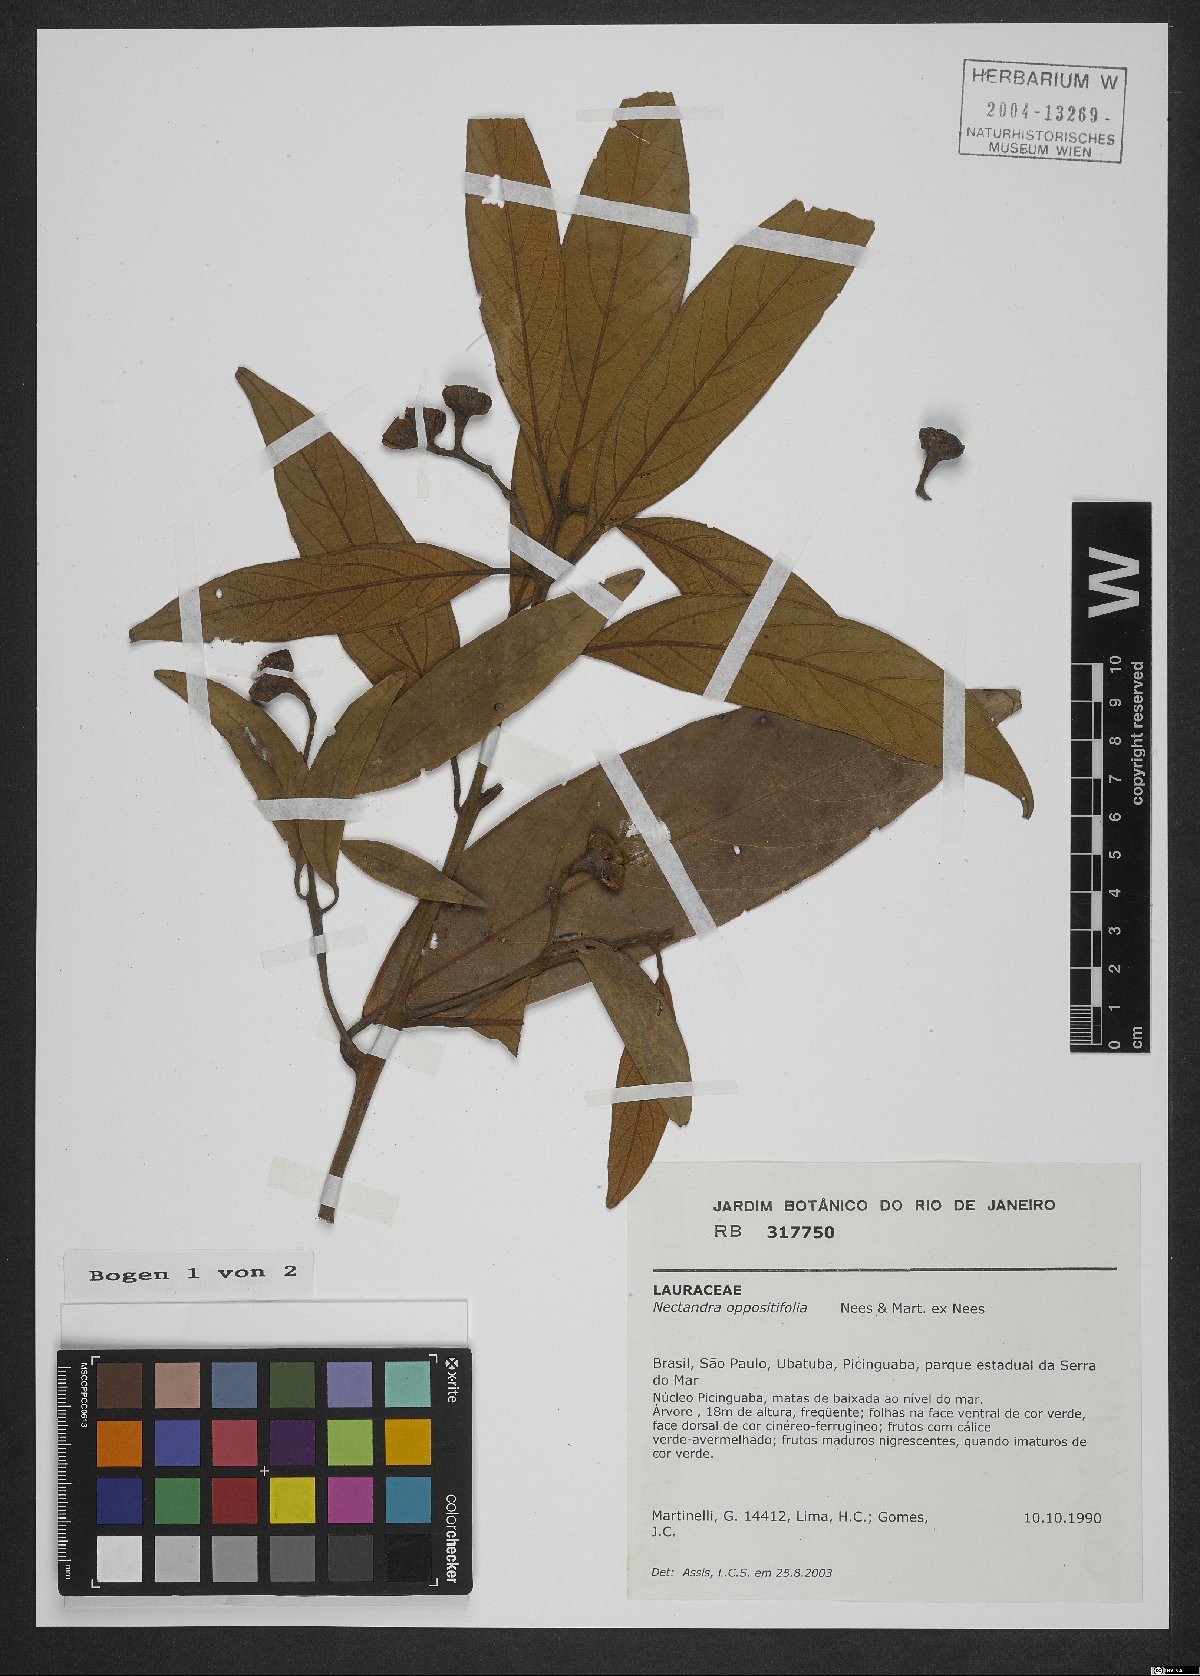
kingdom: Plantae
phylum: Tracheophyta
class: Magnoliopsida
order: Laurales
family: Lauraceae
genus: Nectandra
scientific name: Nectandra oppositifolia
